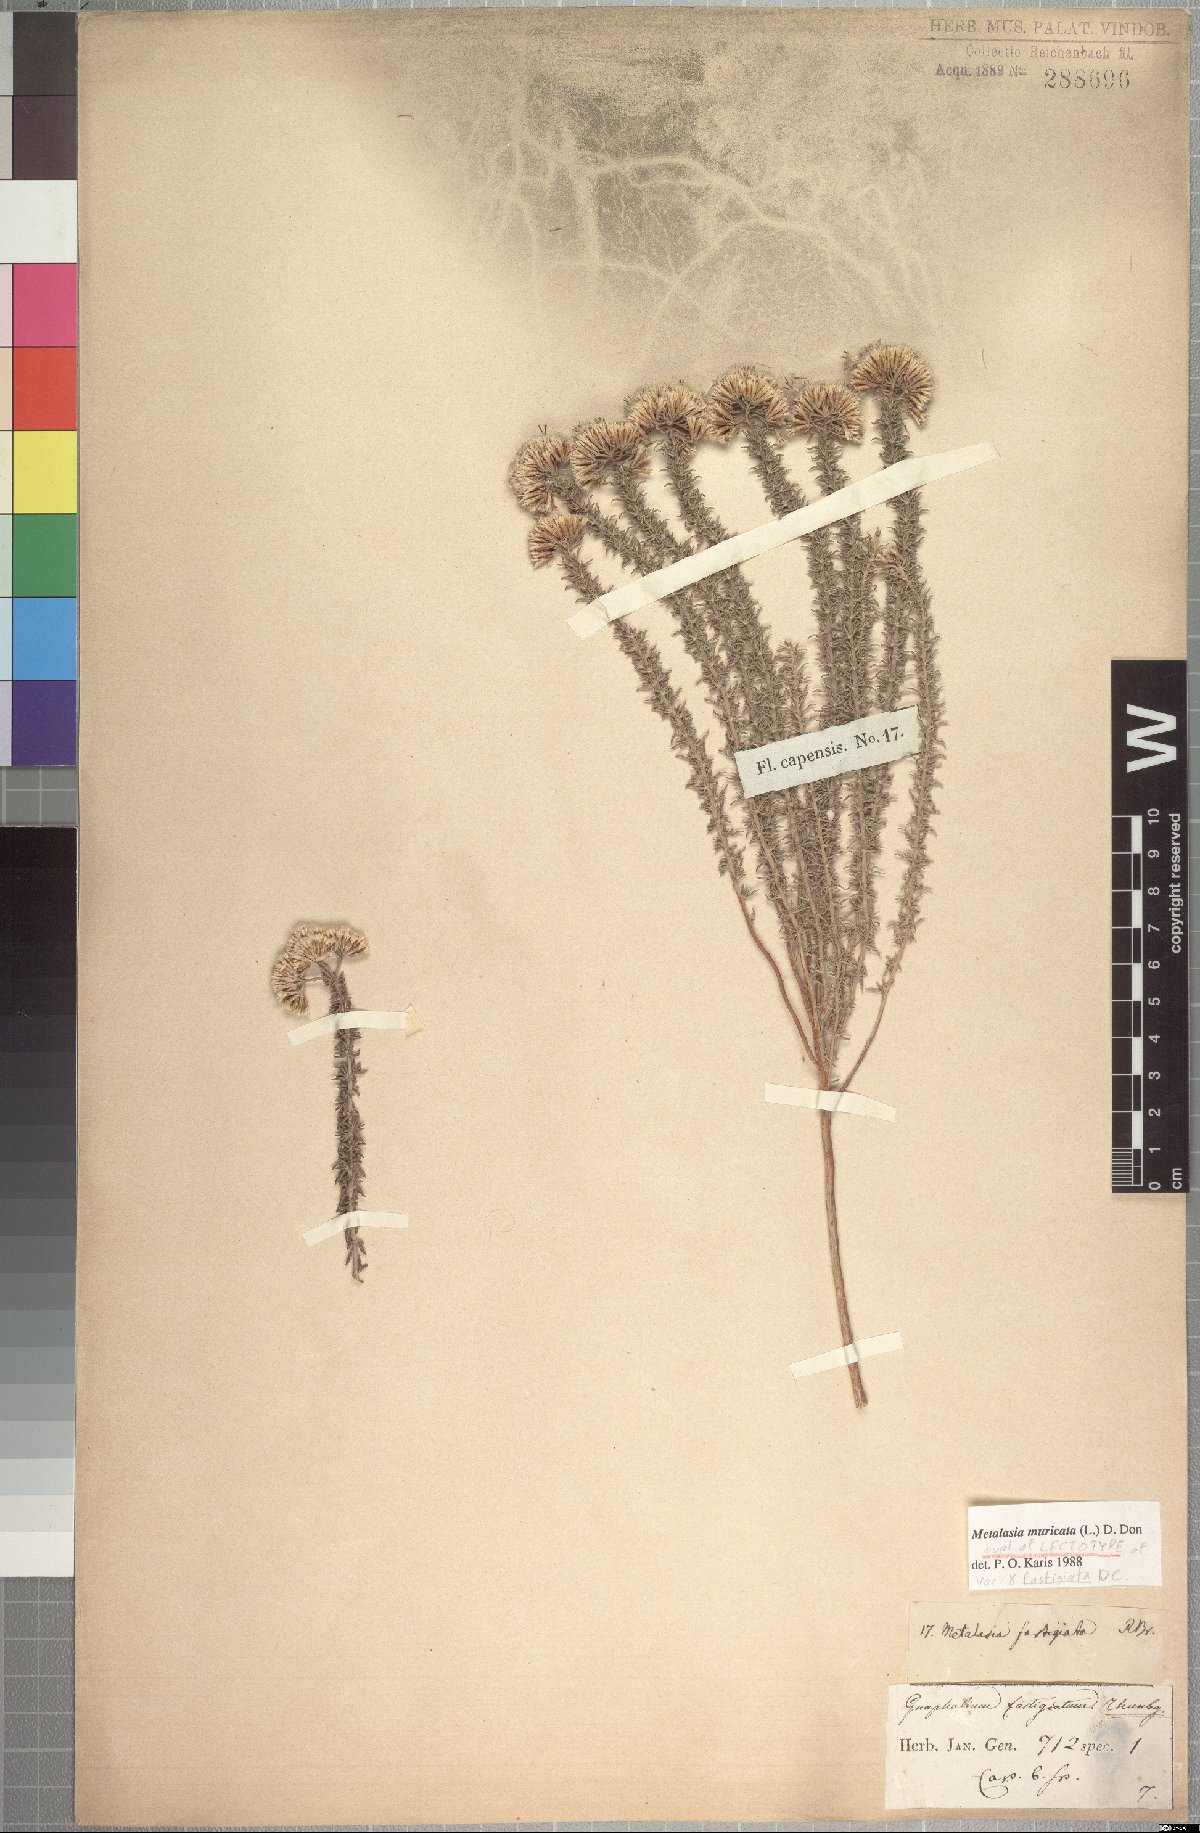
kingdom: Plantae
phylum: Tracheophyta
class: Magnoliopsida
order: Asterales
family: Asteraceae
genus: Metalasia
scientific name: Metalasia muricata
